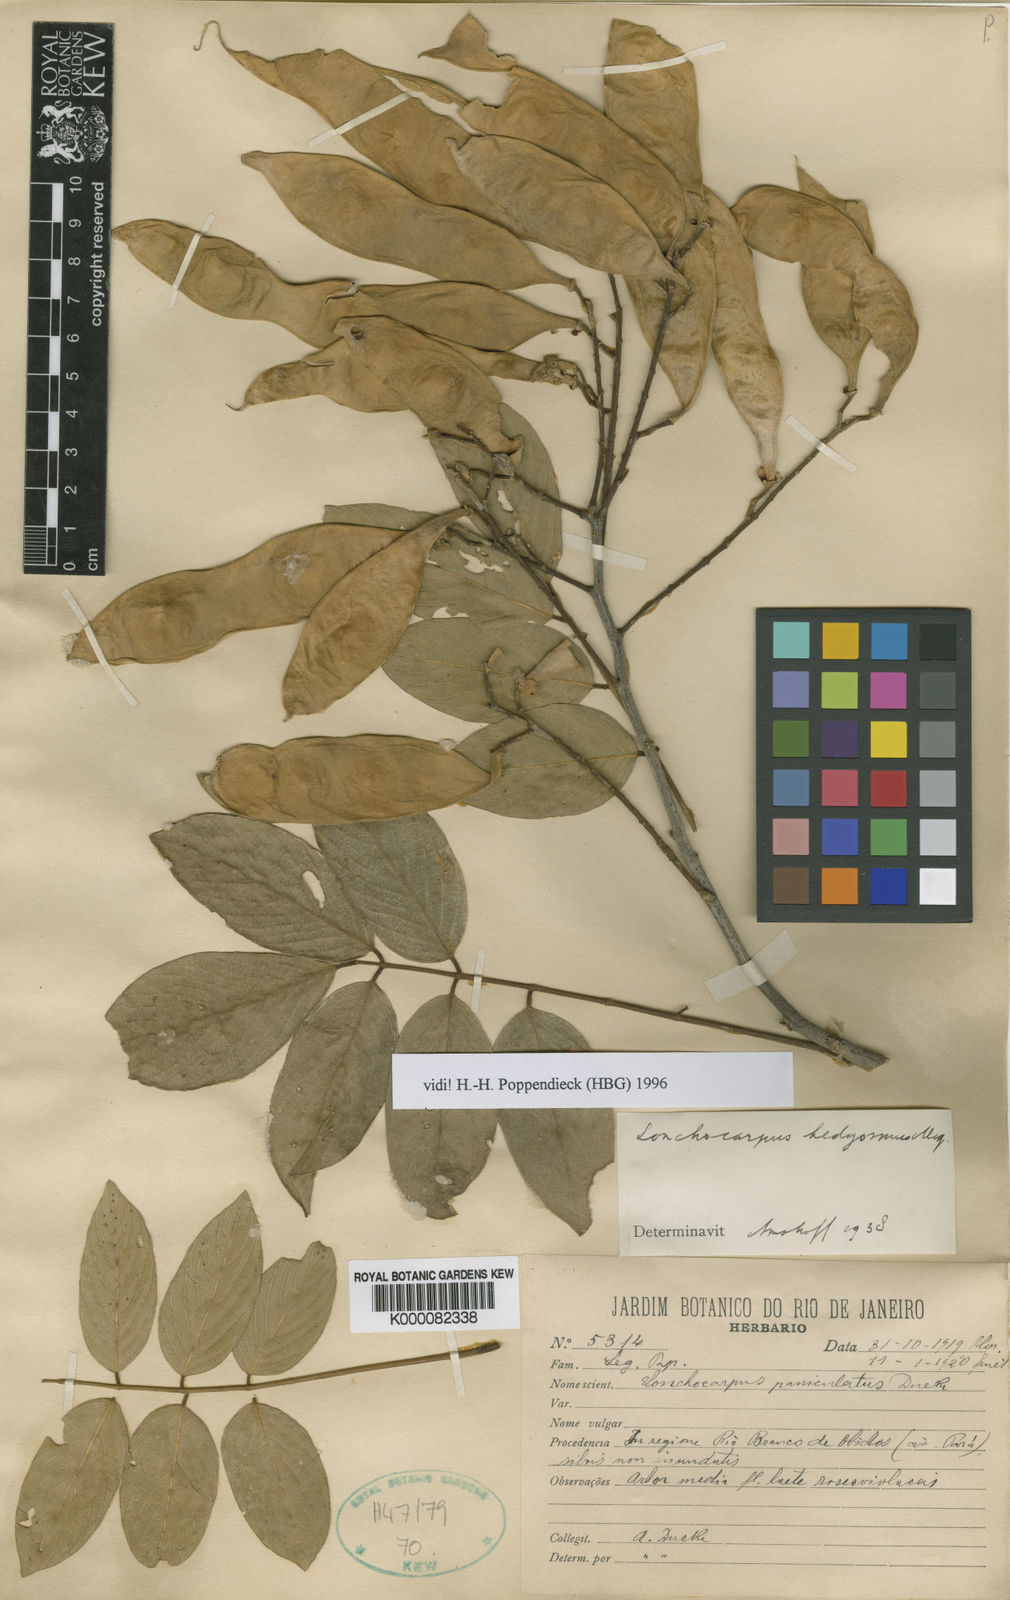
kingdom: Plantae
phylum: Tracheophyta
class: Magnoliopsida
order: Fabales
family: Fabaceae
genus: Lonchocarpus
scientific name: Lonchocarpus hedyosmus
